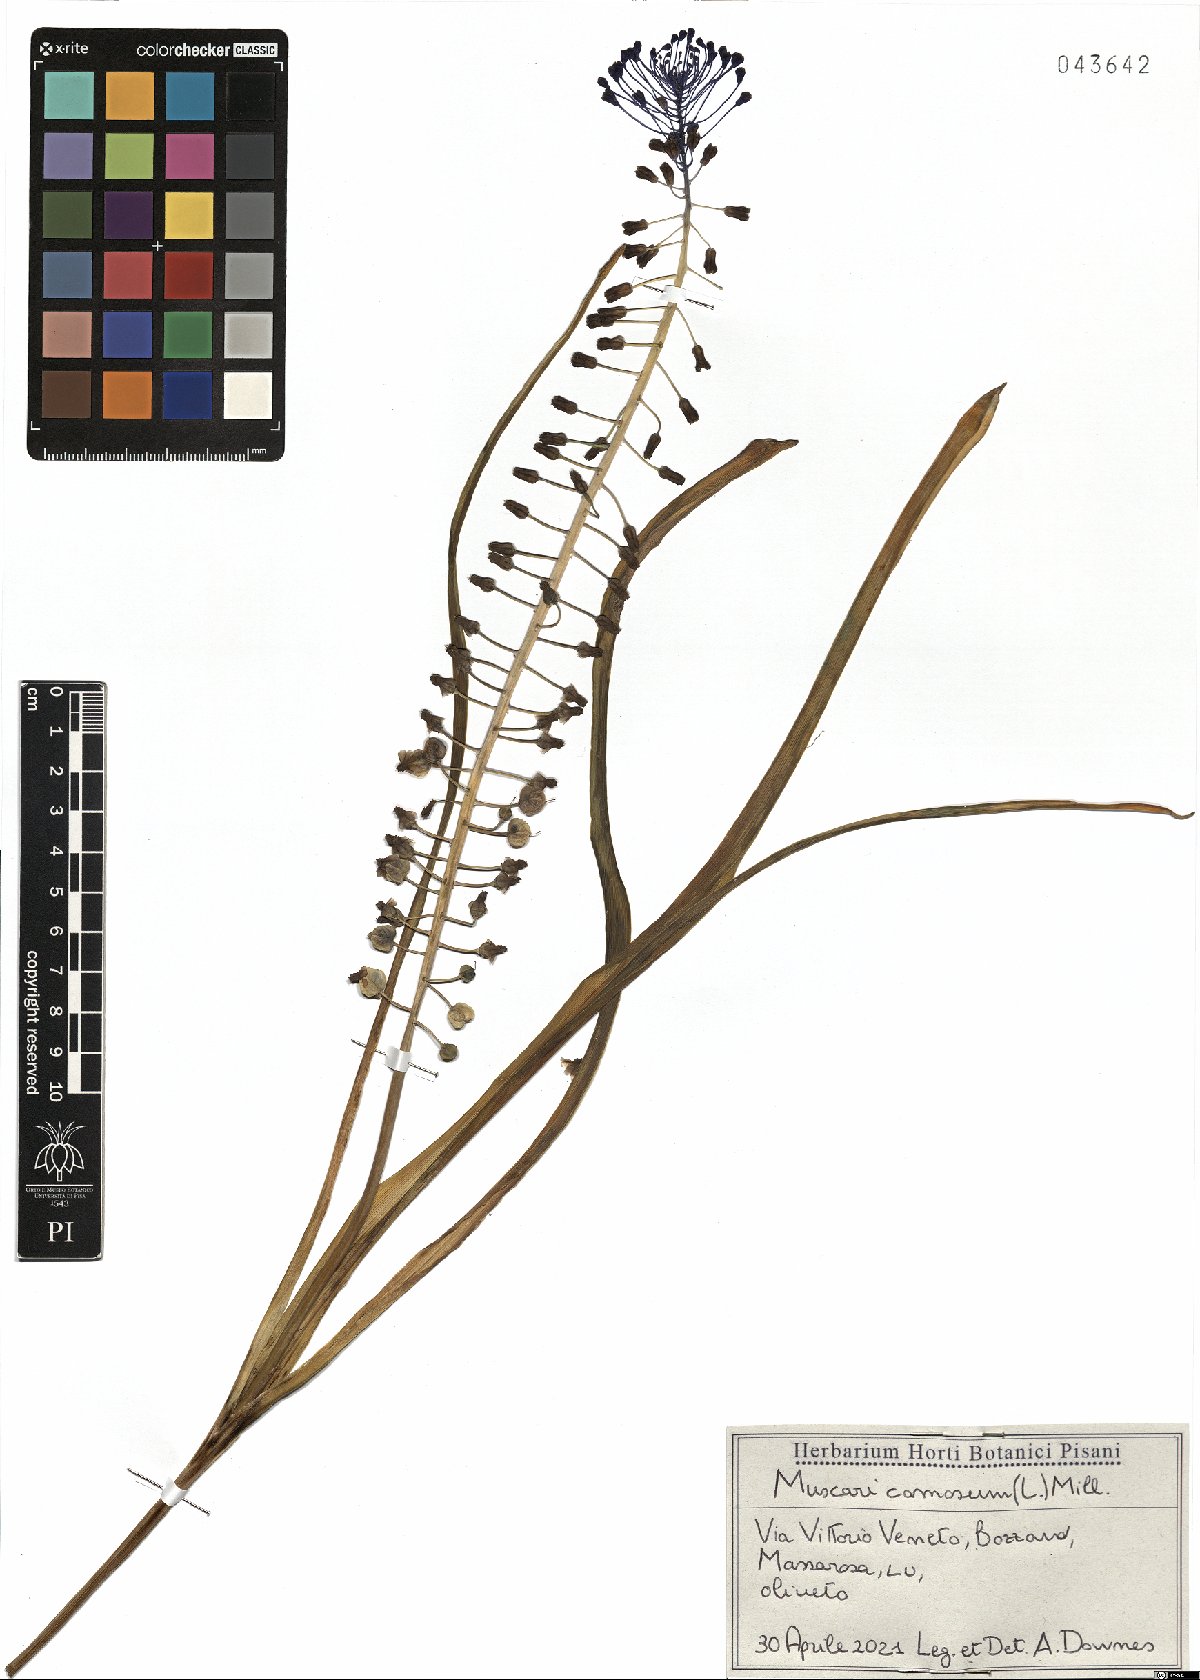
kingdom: Plantae
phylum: Tracheophyta
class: Liliopsida
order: Asparagales
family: Asparagaceae
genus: Muscari
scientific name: Muscari comosum
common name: Tassel hyacinth
